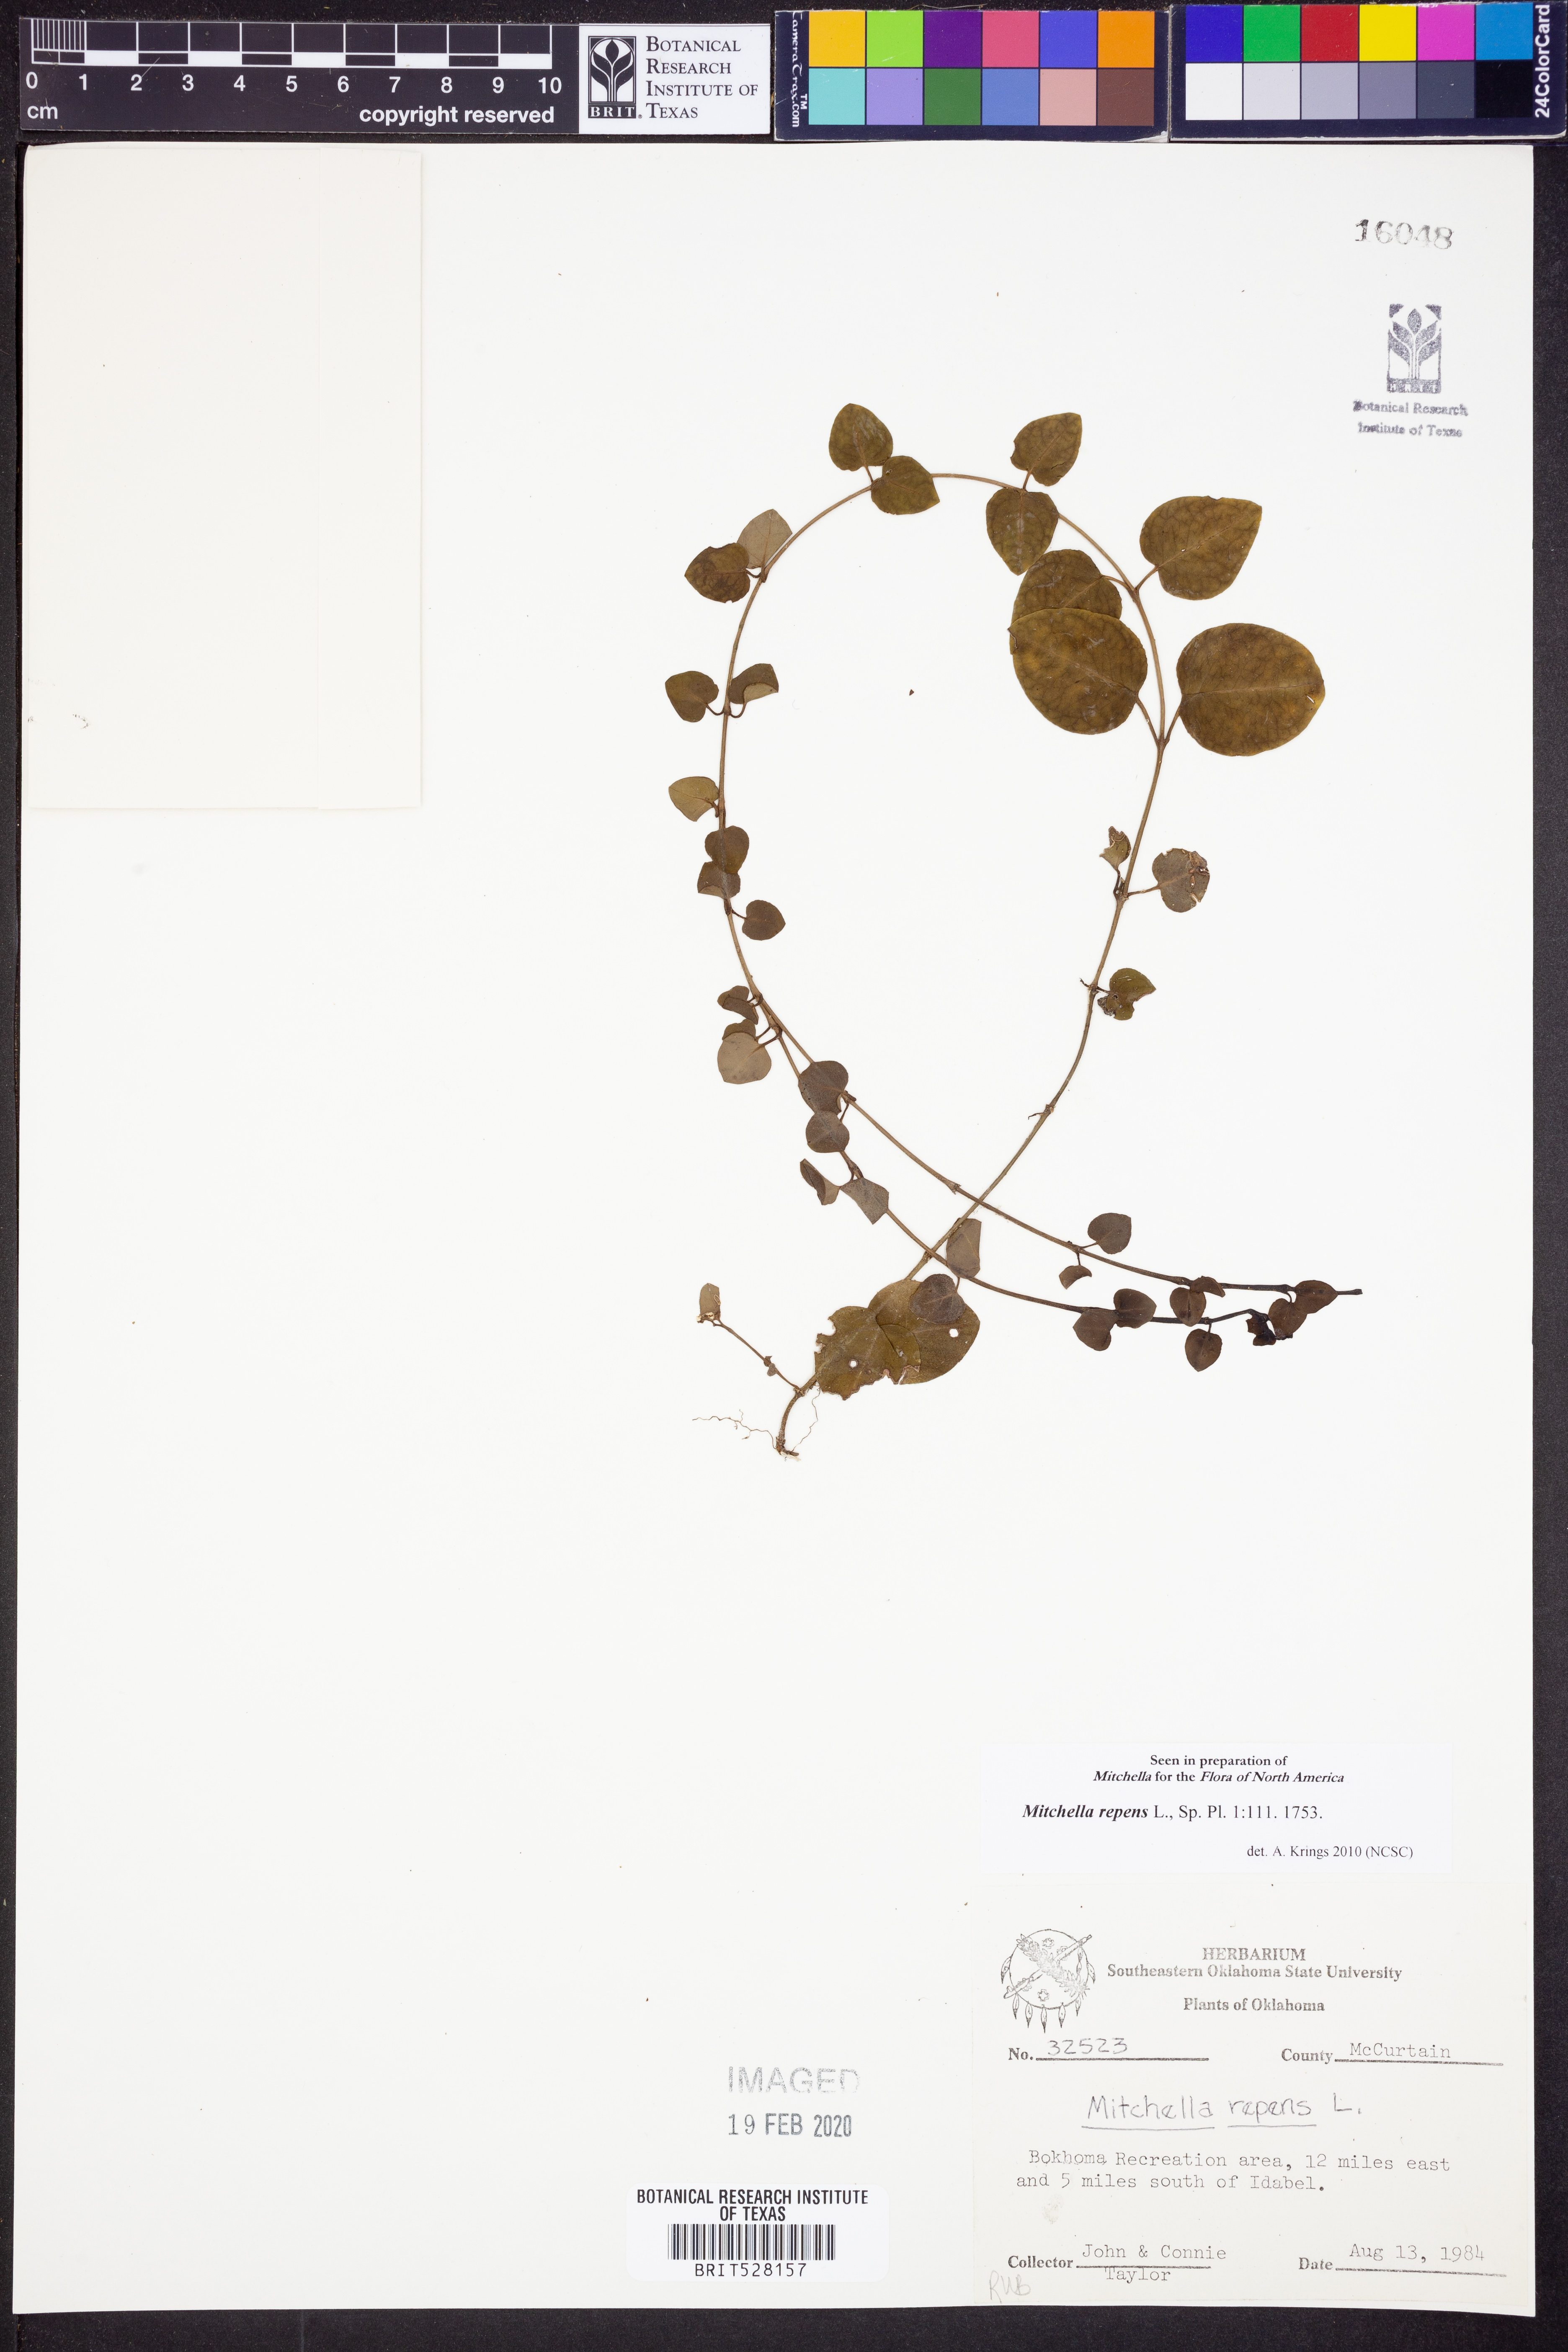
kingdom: Plantae
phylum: Tracheophyta
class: Magnoliopsida
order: Gentianales
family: Rubiaceae
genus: Mitchella
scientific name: Mitchella repens
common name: Partridge-berry
